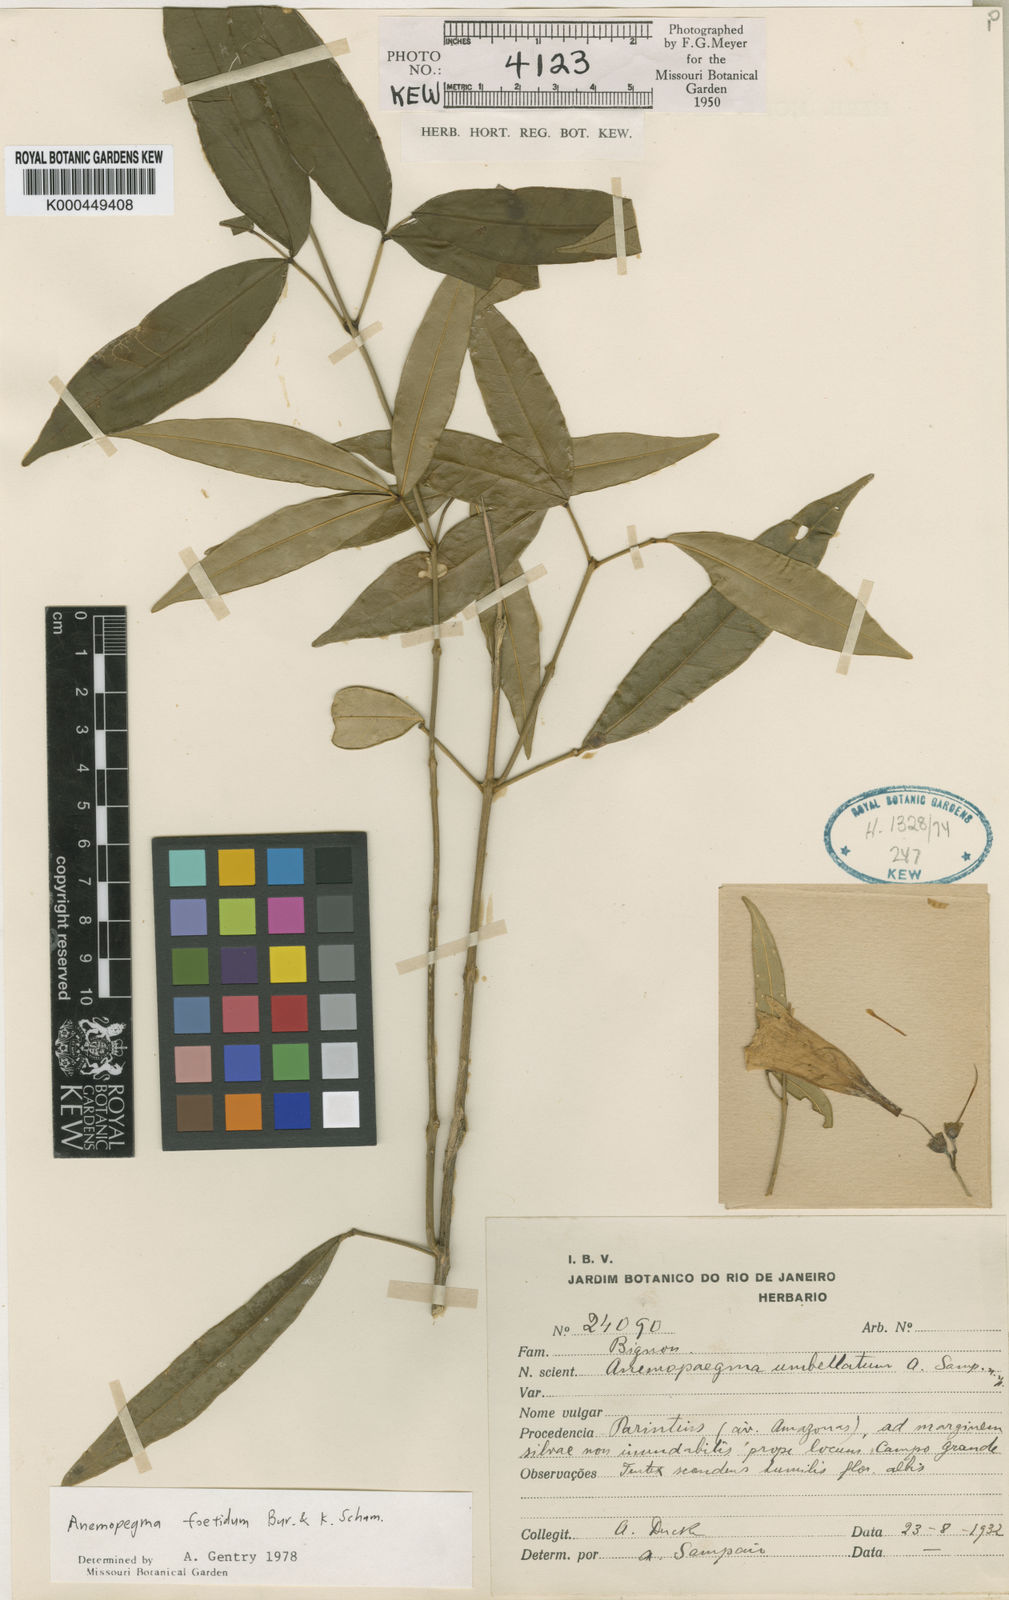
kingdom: Plantae
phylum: Tracheophyta
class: Magnoliopsida
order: Lamiales
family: Bignoniaceae
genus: Anemopaegma
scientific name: Anemopaegma foetidum
